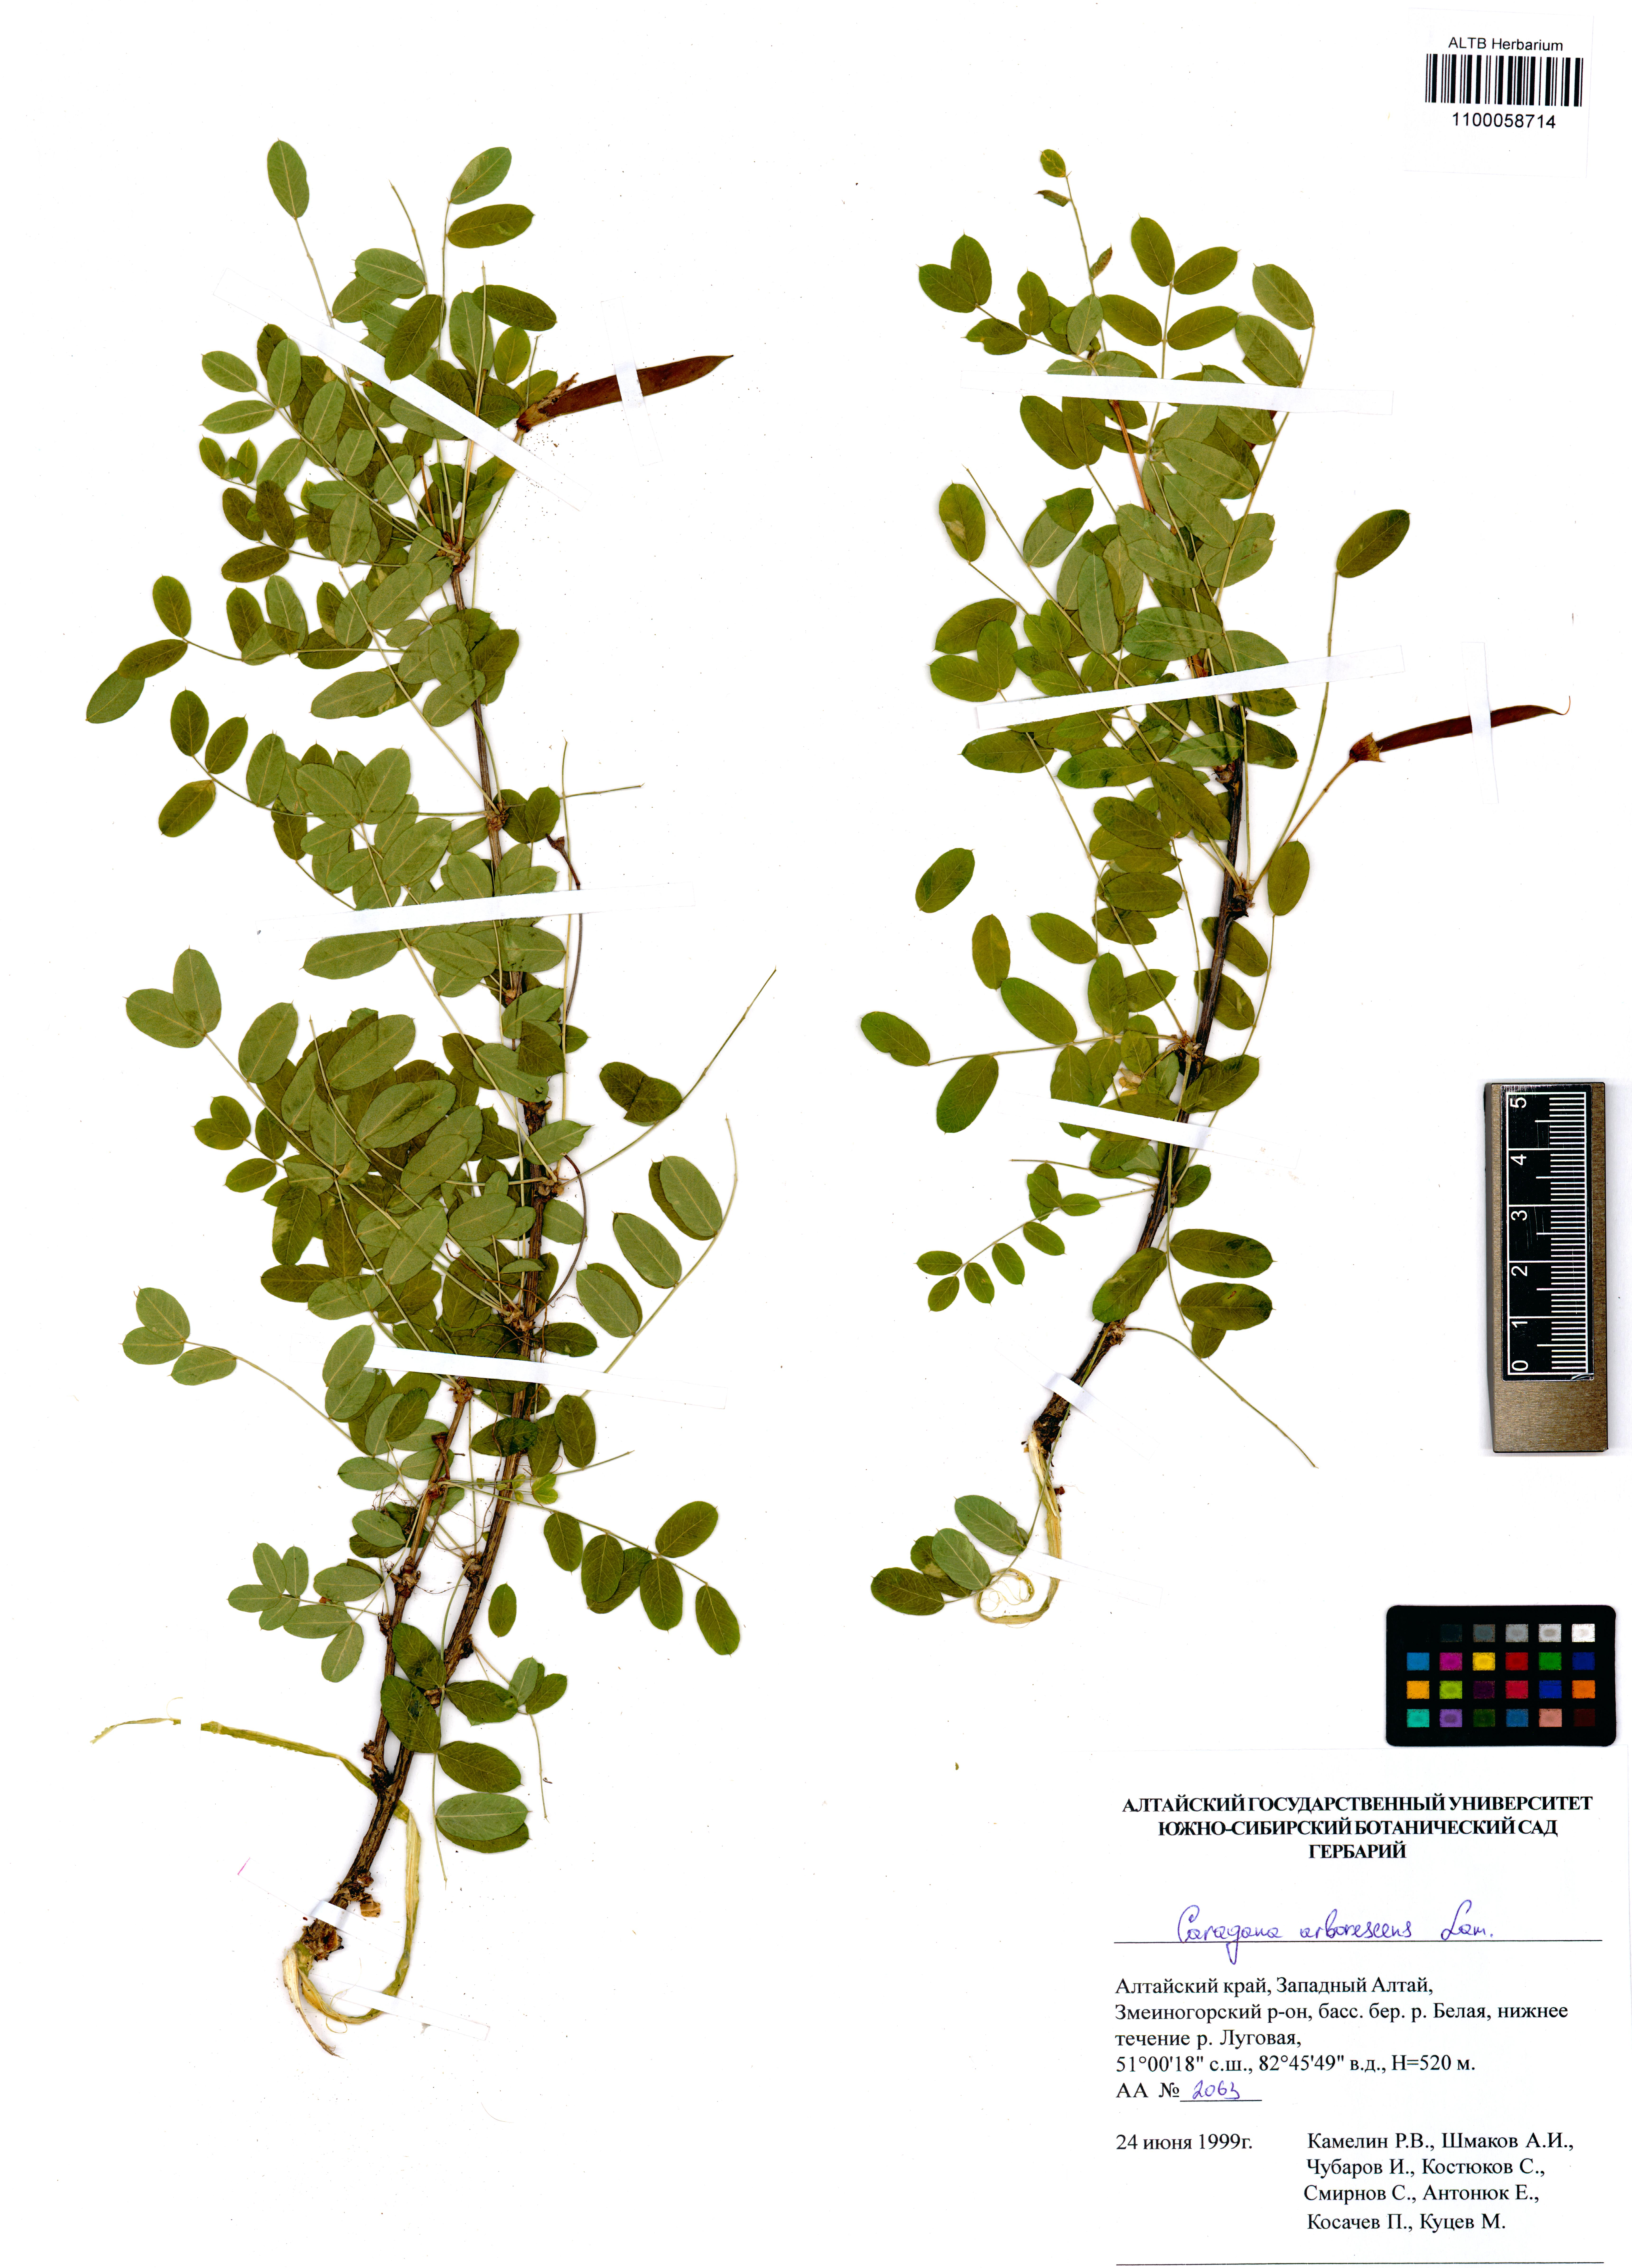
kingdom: Plantae
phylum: Tracheophyta
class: Magnoliopsida
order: Fabales
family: Fabaceae
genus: Caragana
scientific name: Caragana arborescens
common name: Siberian peashrub
